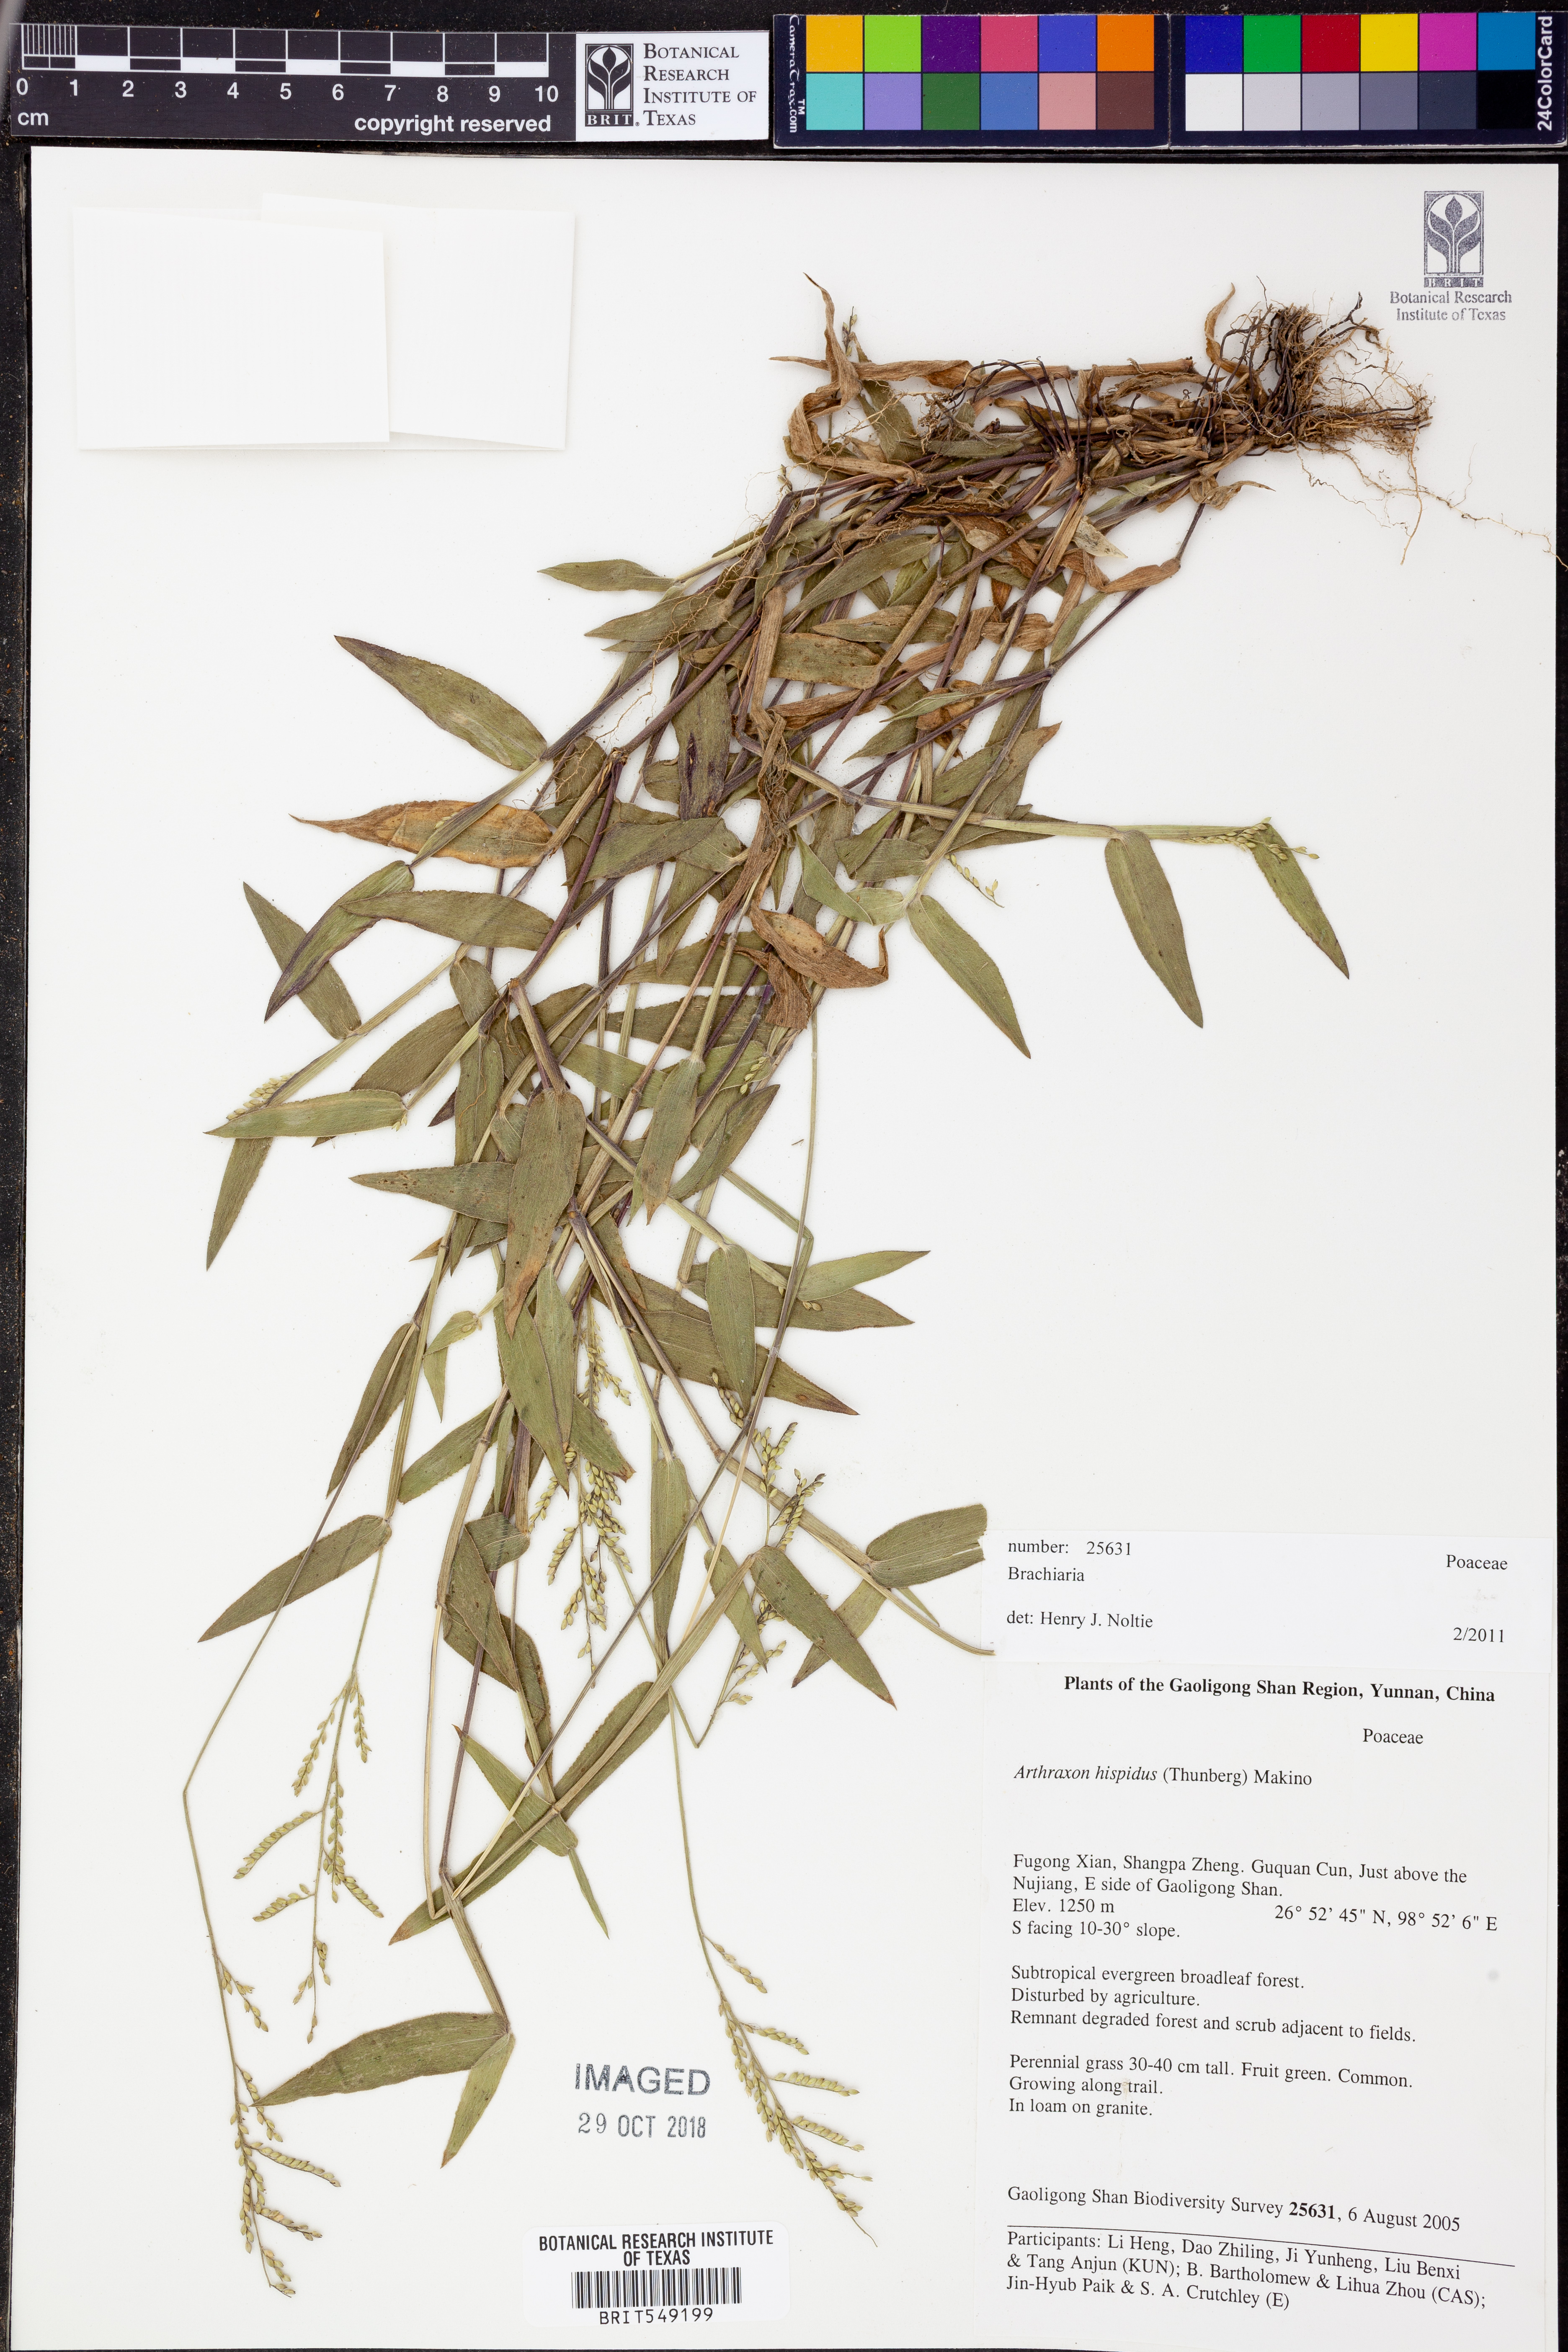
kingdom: Plantae
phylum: Tracheophyta
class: Liliopsida
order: Poales
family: Poaceae
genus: Brachiaria
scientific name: Brachiaria
